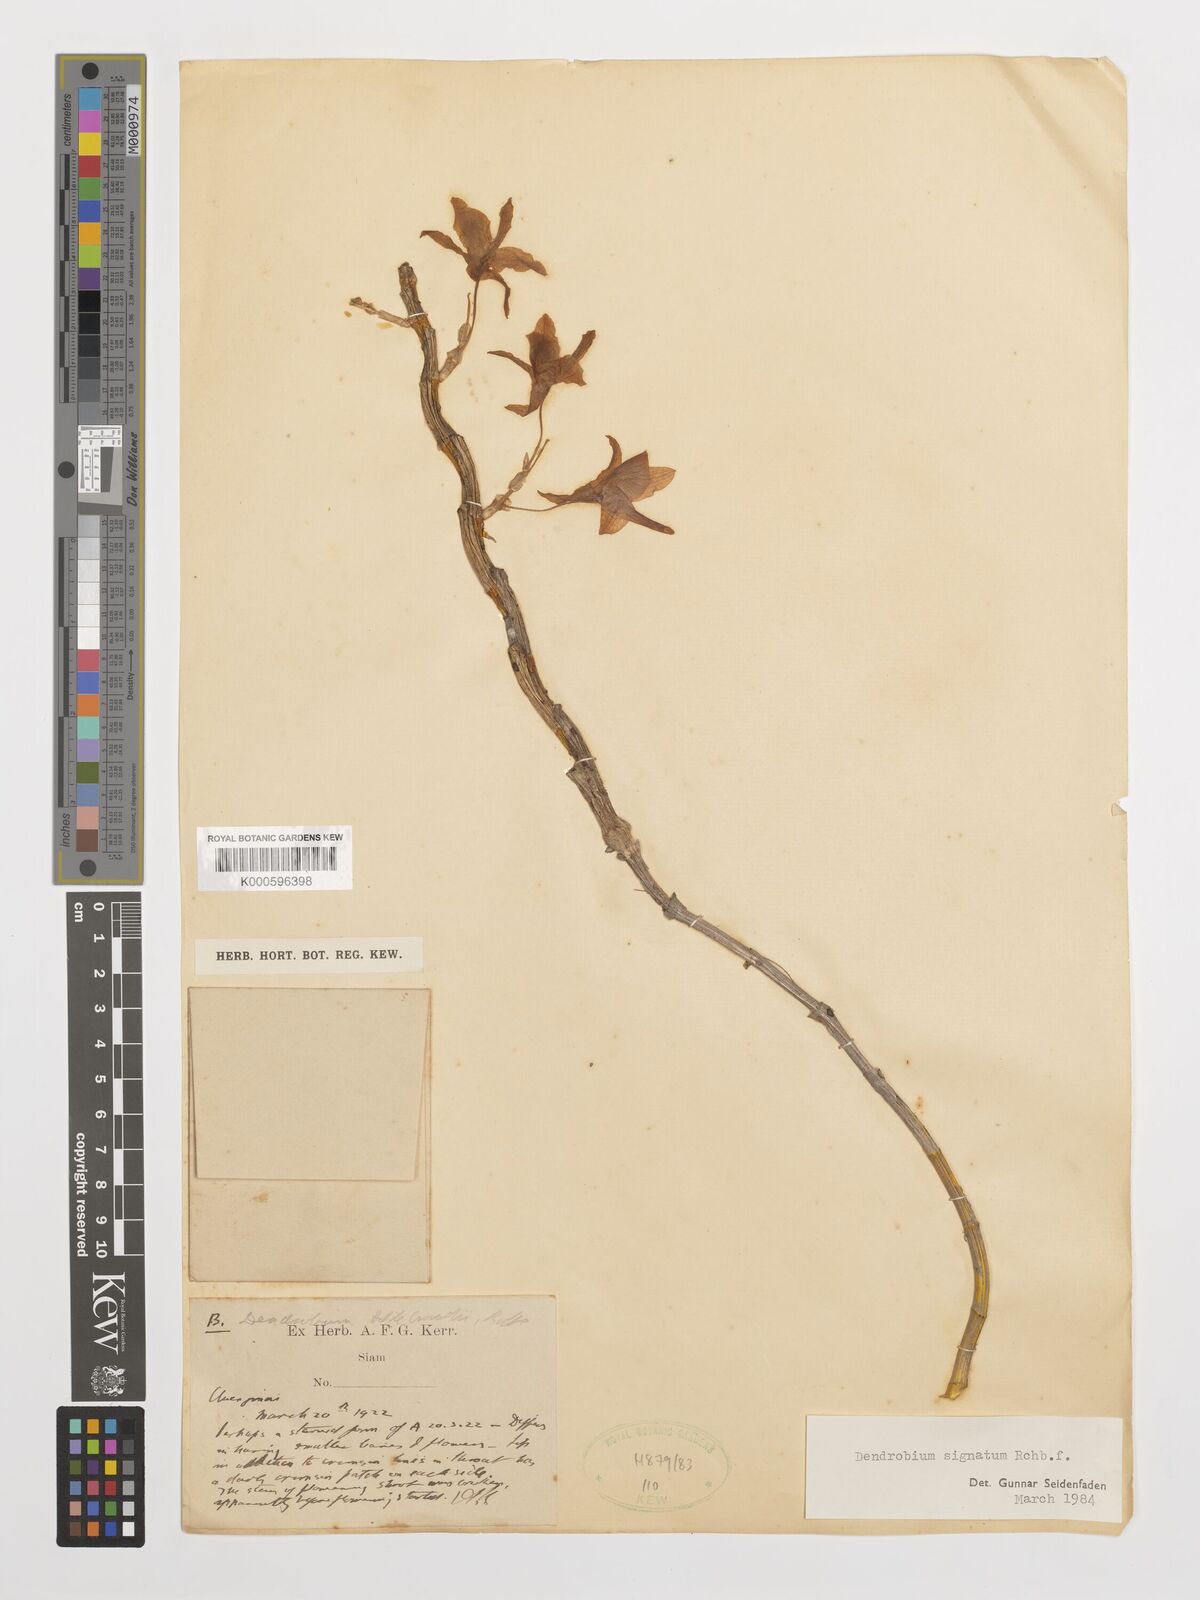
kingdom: Plantae
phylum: Tracheophyta
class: Liliopsida
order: Asparagales
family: Orchidaceae
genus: Dendrobium
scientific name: Dendrobium signatum
